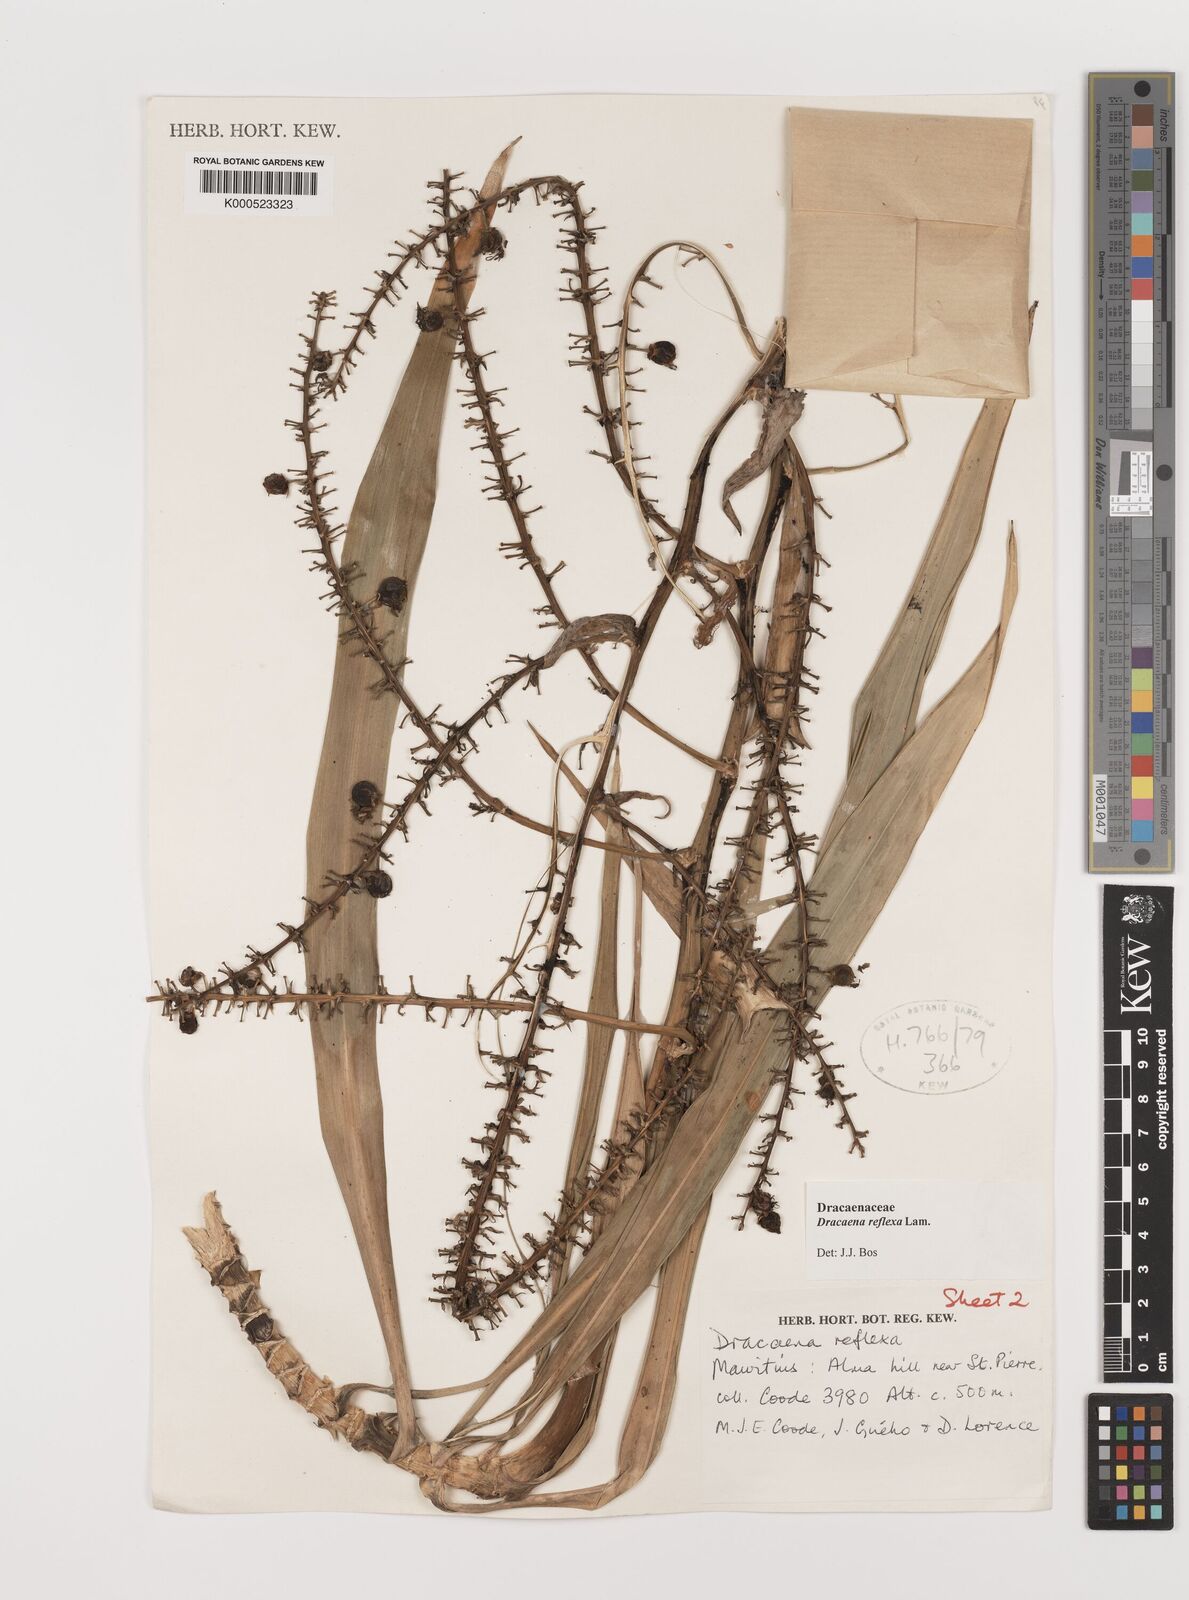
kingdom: Plantae
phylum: Tracheophyta
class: Liliopsida
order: Asparagales
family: Asparagaceae
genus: Dracaena
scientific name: Dracaena reflexa
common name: Song-of-india
